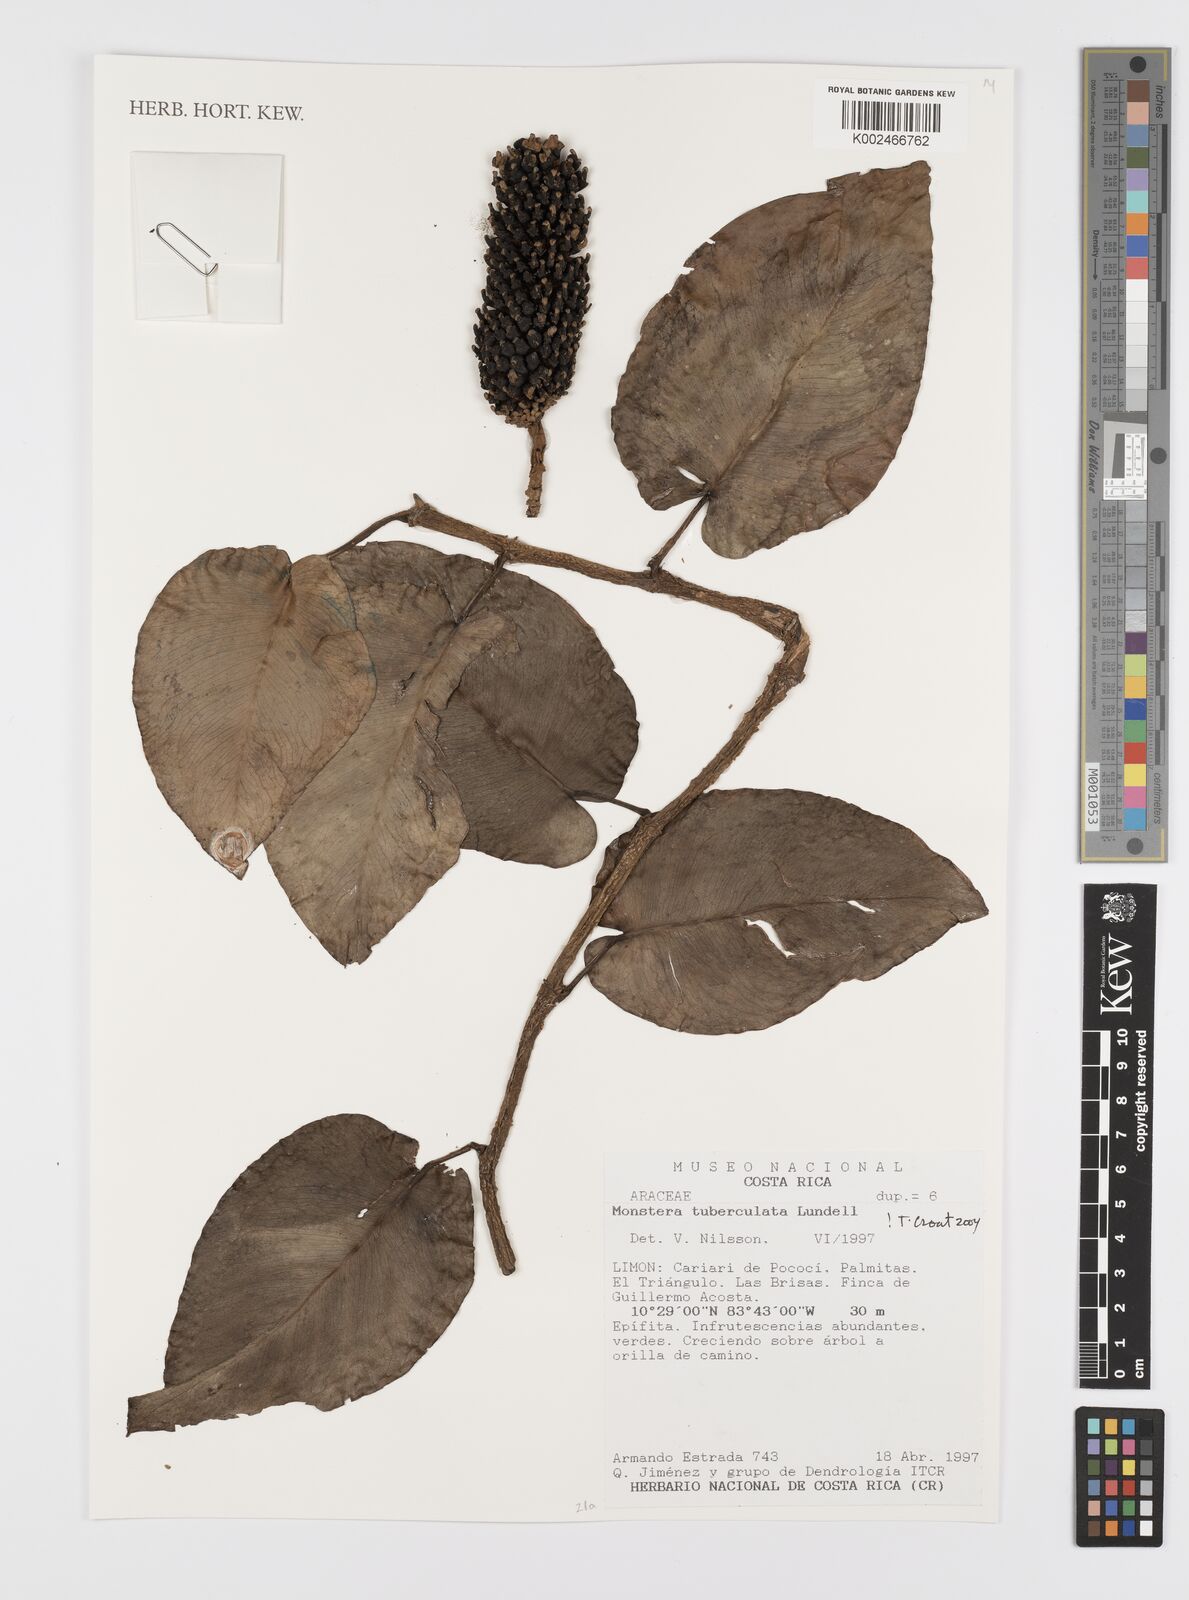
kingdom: Plantae
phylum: Tracheophyta
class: Liliopsida
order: Alismatales
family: Araceae
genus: Monstera
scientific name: Monstera tuberculata
